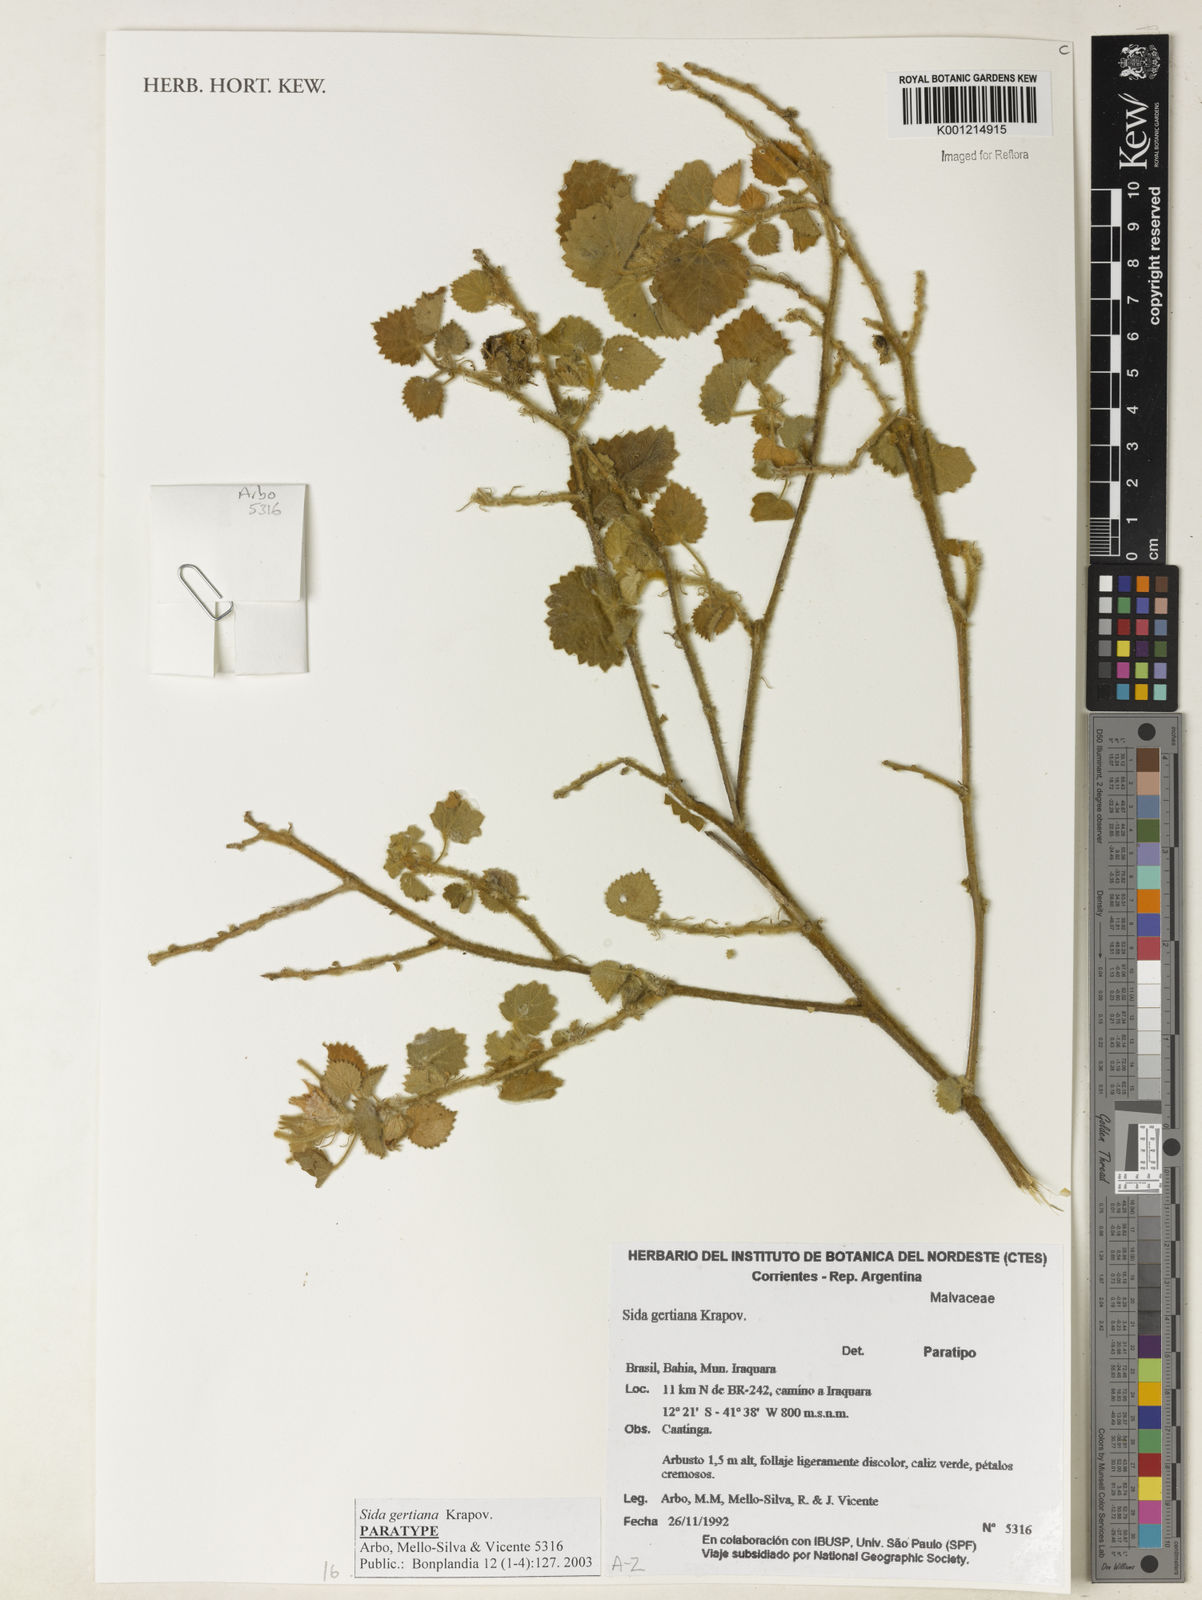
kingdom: Plantae
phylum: Tracheophyta
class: Magnoliopsida
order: Malvales
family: Malvaceae
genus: Sida
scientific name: Sida gertiana
